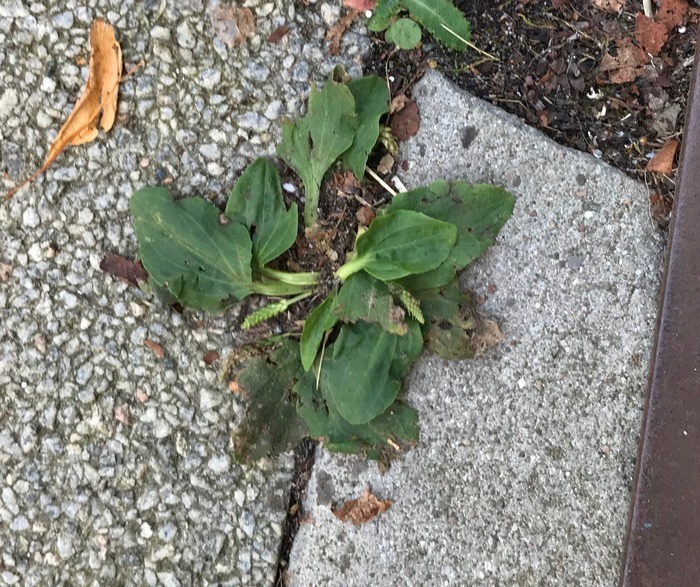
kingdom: Plantae
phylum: Tracheophyta
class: Magnoliopsida
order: Lamiales
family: Plantaginaceae
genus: Plantago
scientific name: Plantago major
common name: Glat vejbred
